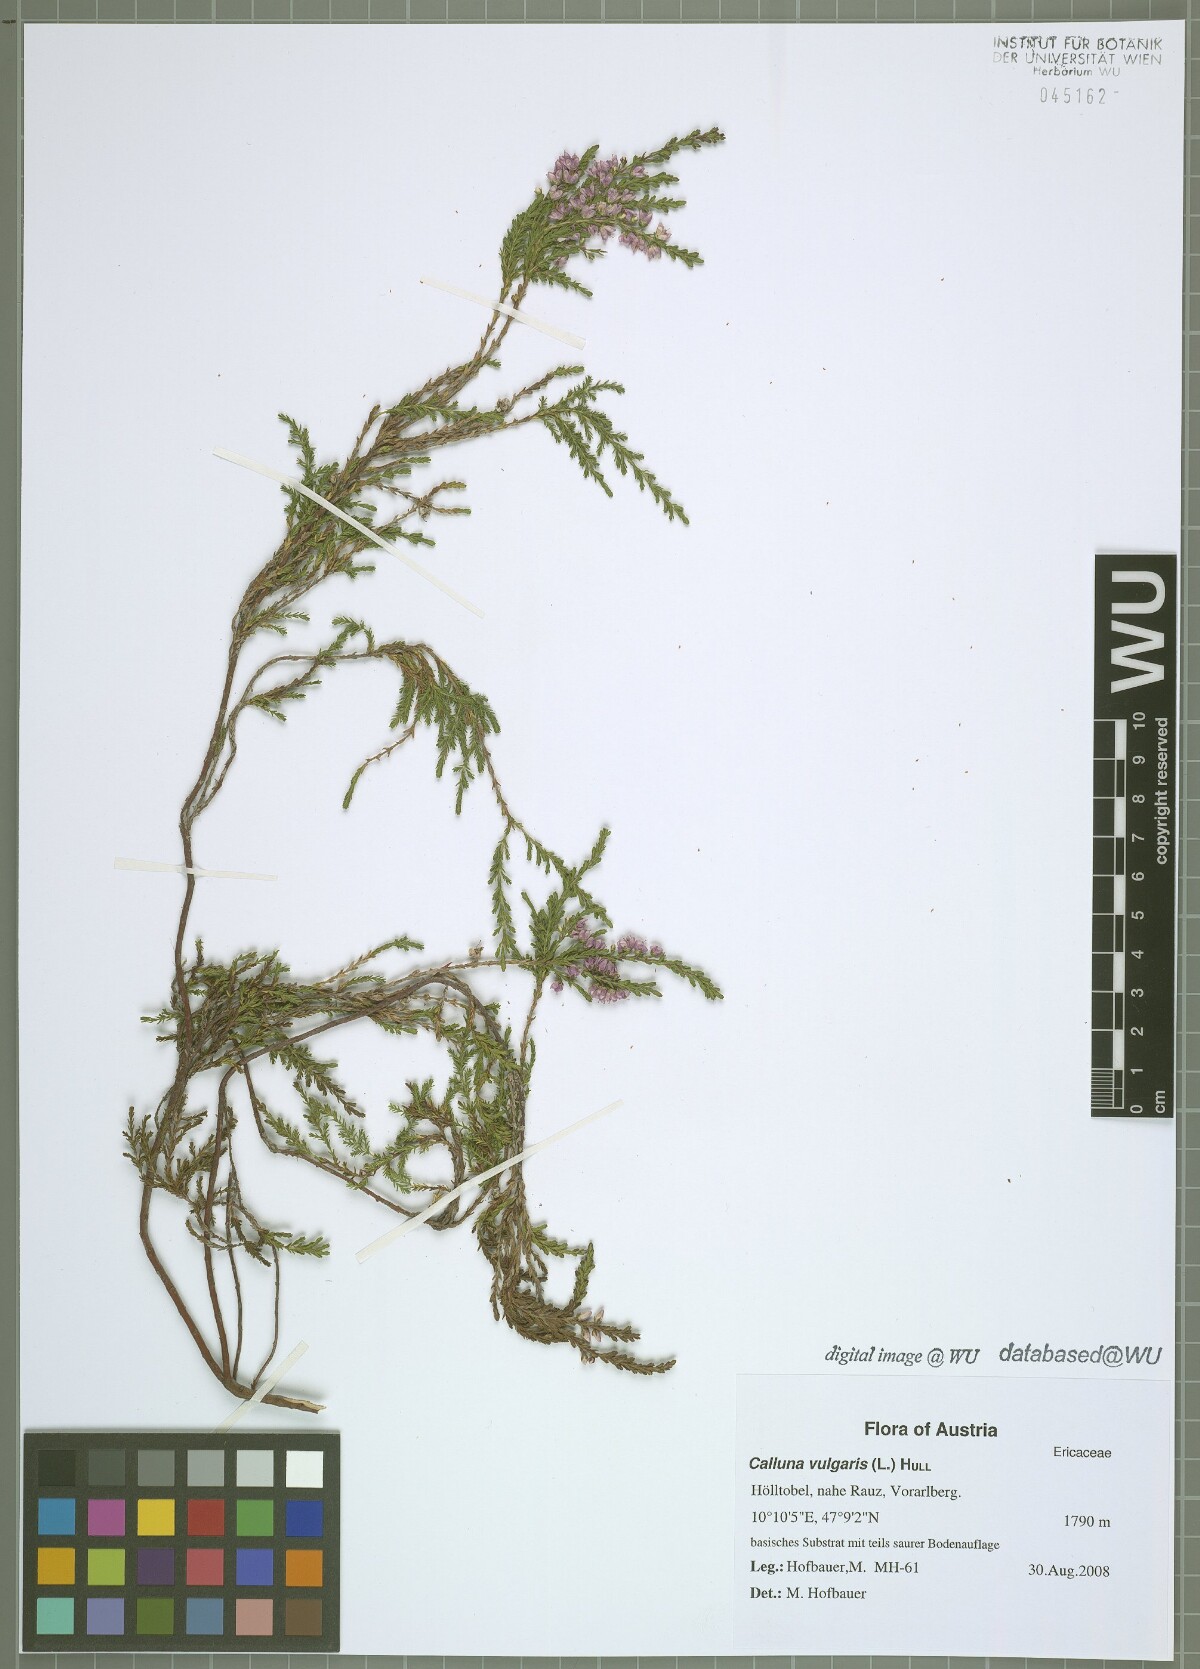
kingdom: Plantae
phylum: Tracheophyta
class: Magnoliopsida
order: Ericales
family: Ericaceae
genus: Calluna
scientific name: Calluna vulgaris
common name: Heather
